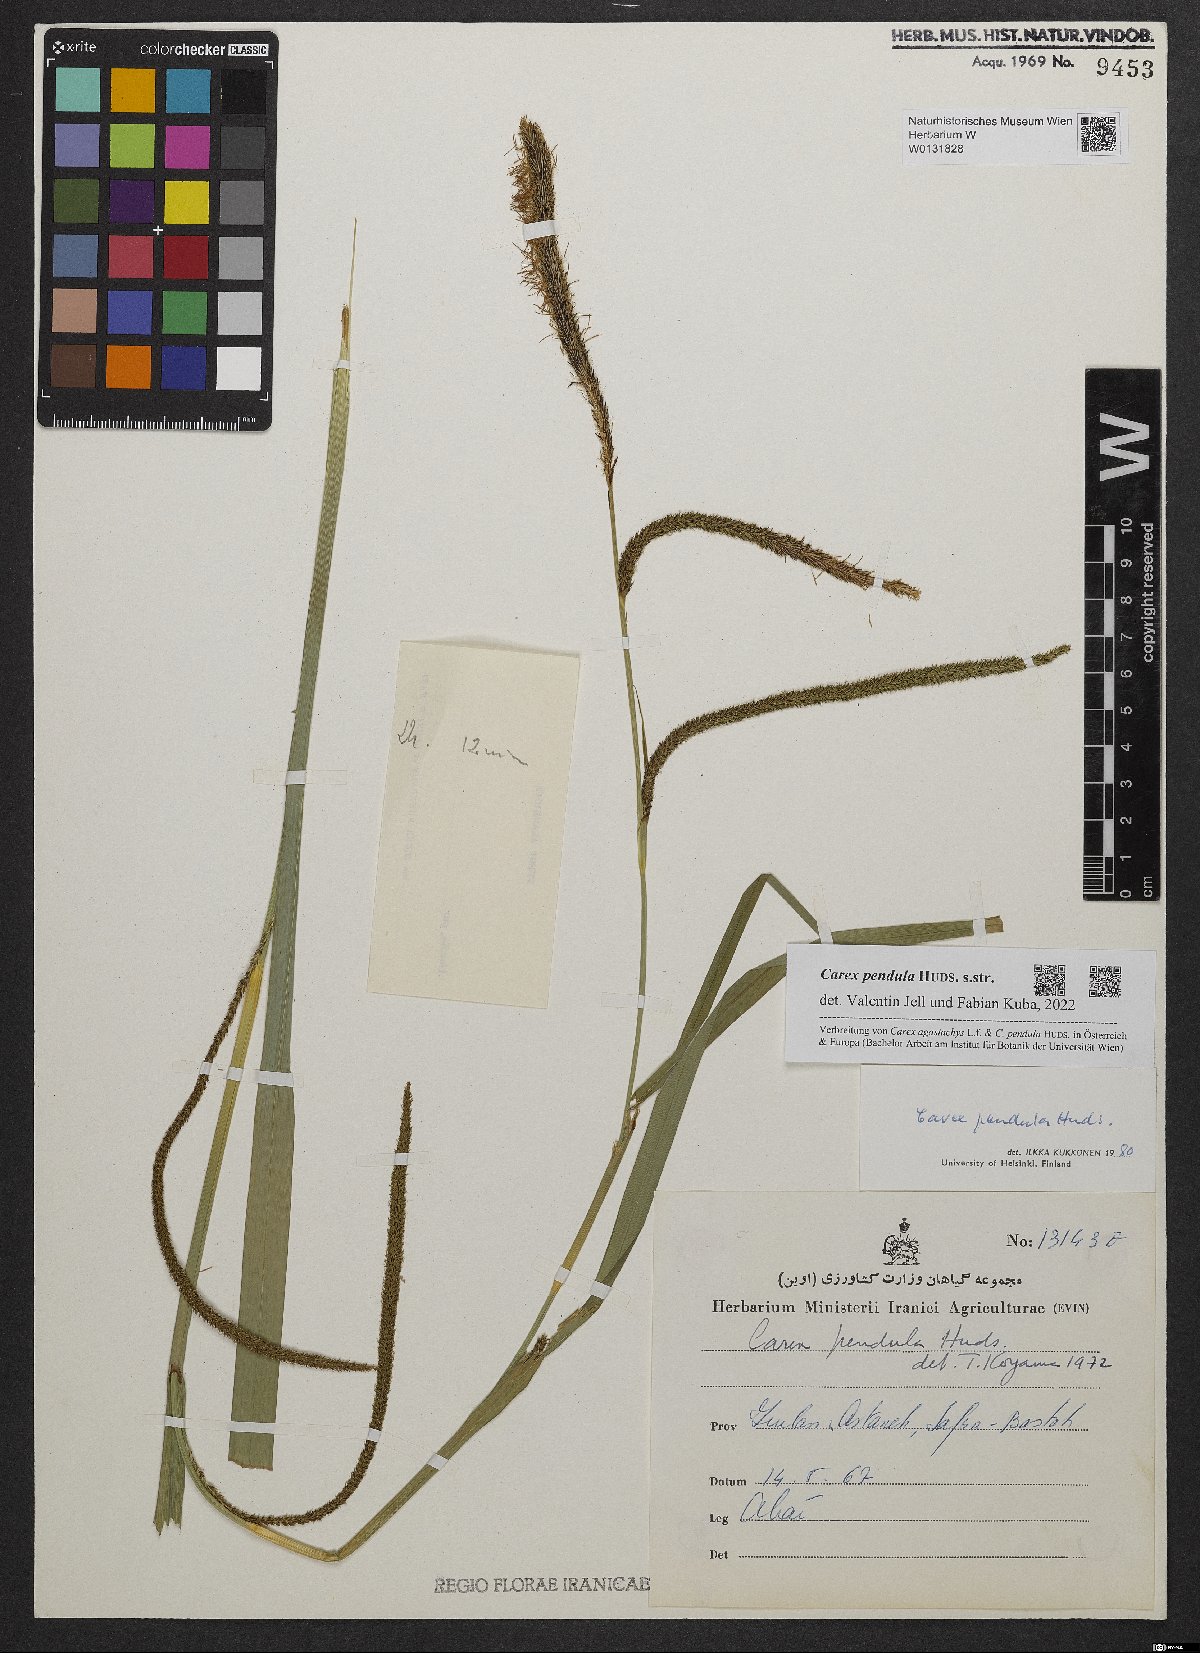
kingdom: Plantae
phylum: Tracheophyta
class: Liliopsida
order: Poales
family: Cyperaceae
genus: Carex
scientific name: Carex pendula
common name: Pendulous sedge
